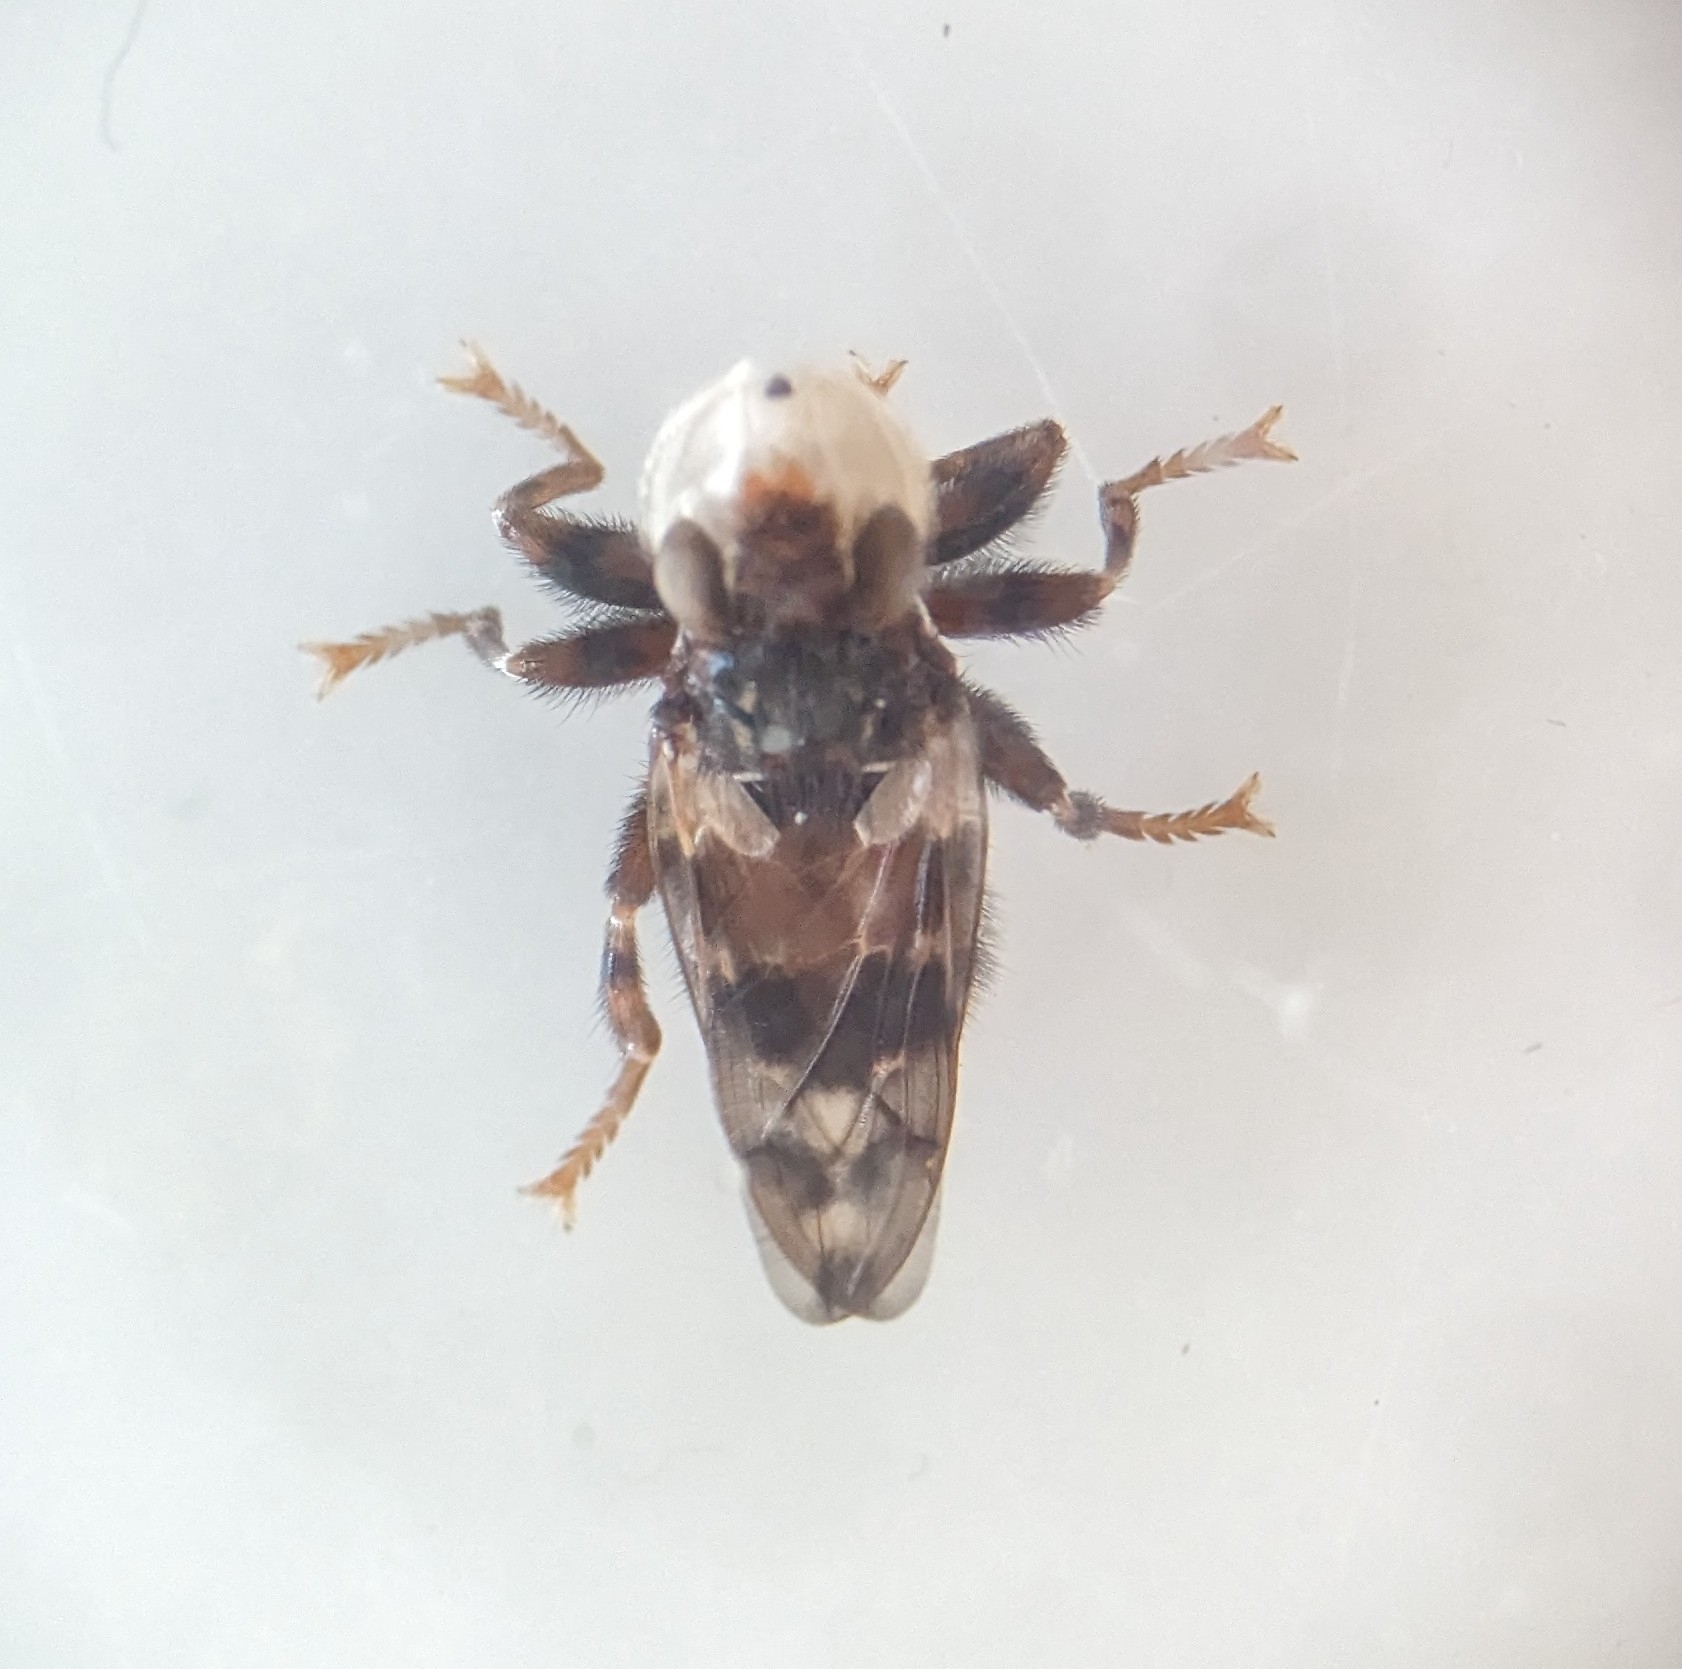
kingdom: Animalia
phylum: Arthropoda
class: Insecta
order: Diptera
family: Conopidae
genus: Myopa
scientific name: Myopa buccata
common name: Brun hvepseflue
